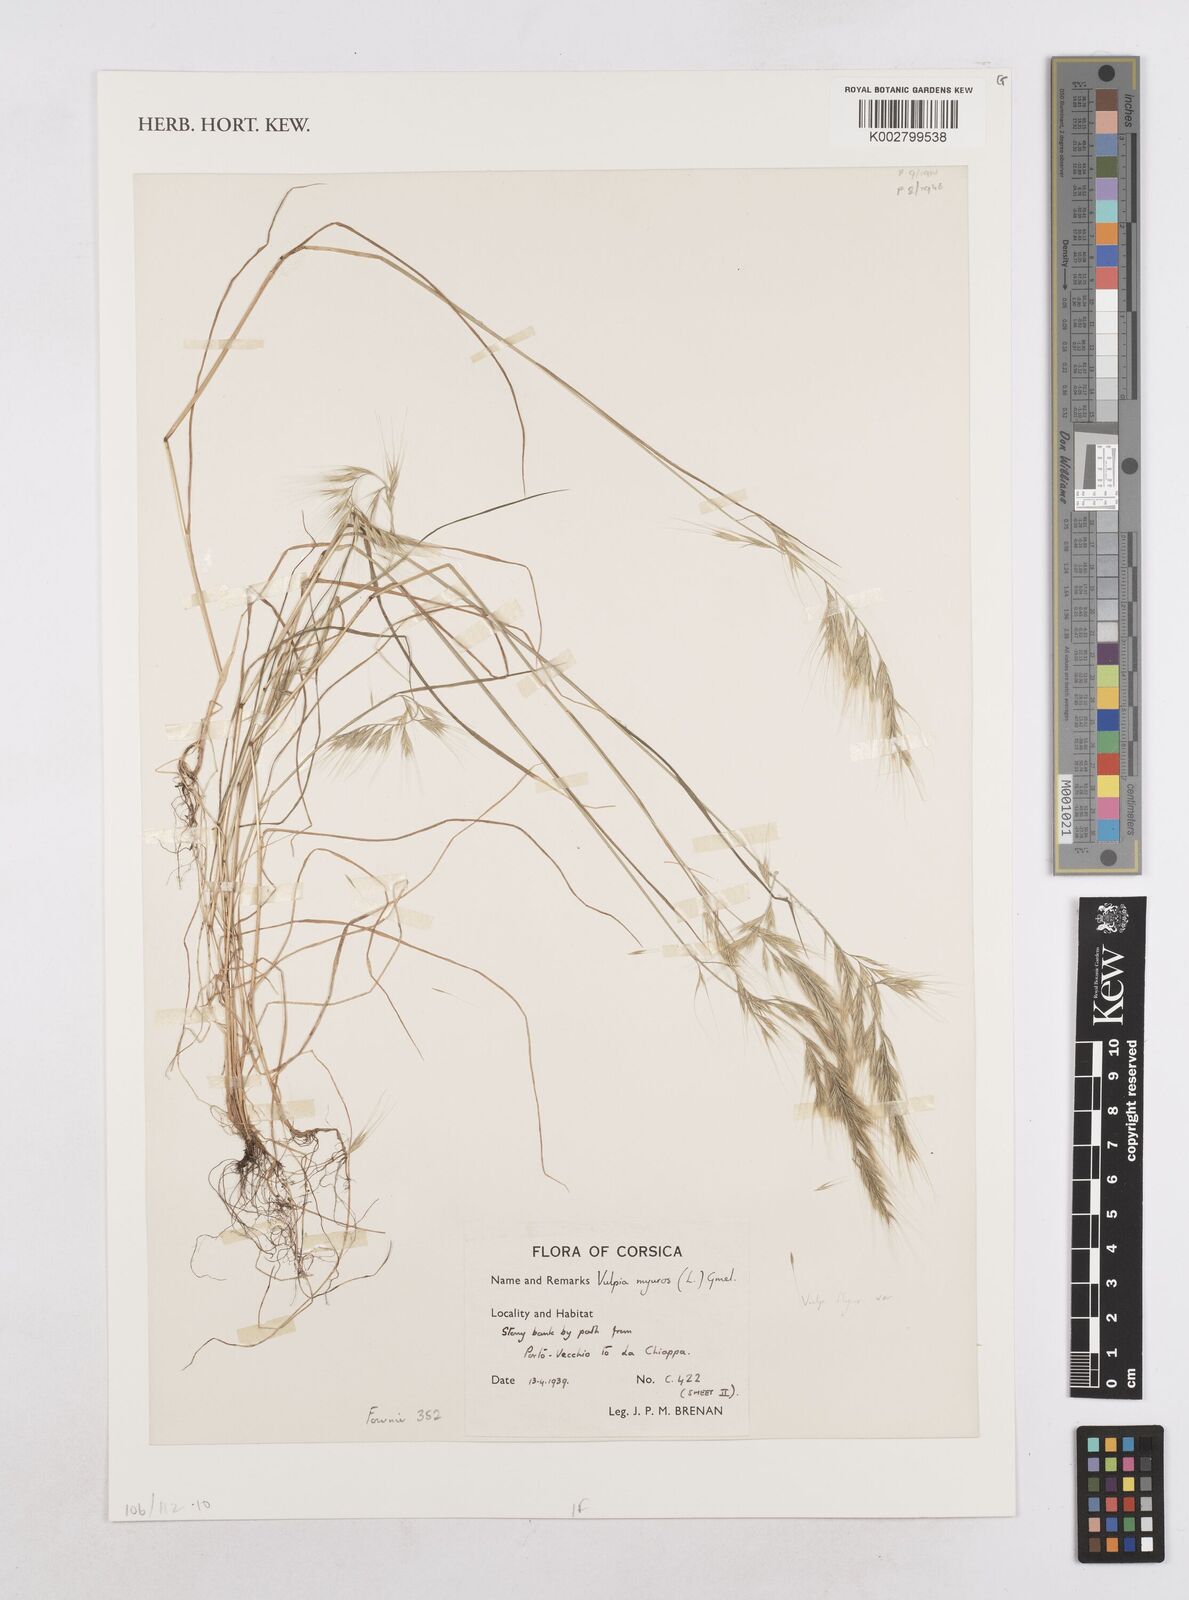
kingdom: Plantae
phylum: Tracheophyta
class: Liliopsida
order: Poales
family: Poaceae
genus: Festuca
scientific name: Festuca myuros
